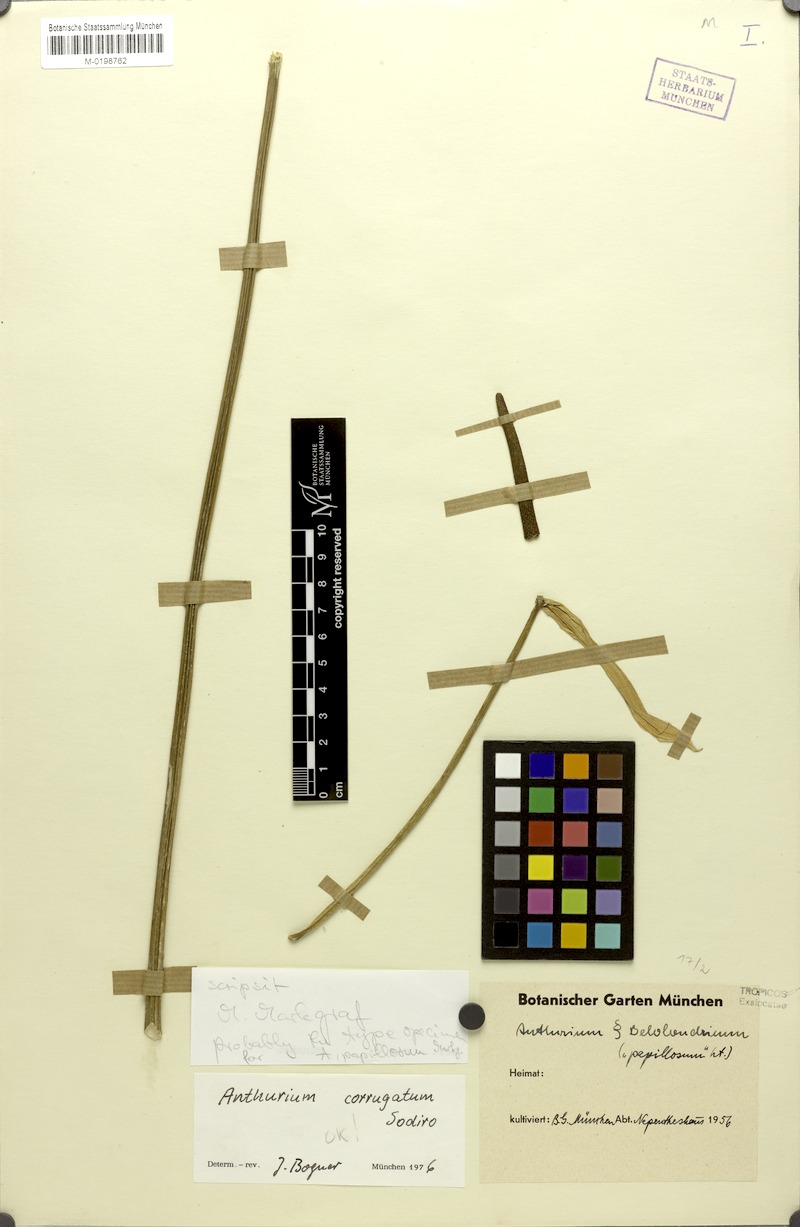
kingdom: Plantae
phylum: Tracheophyta
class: Liliopsida
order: Alismatales
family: Araceae
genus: Anthurium
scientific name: Anthurium corrugatum
